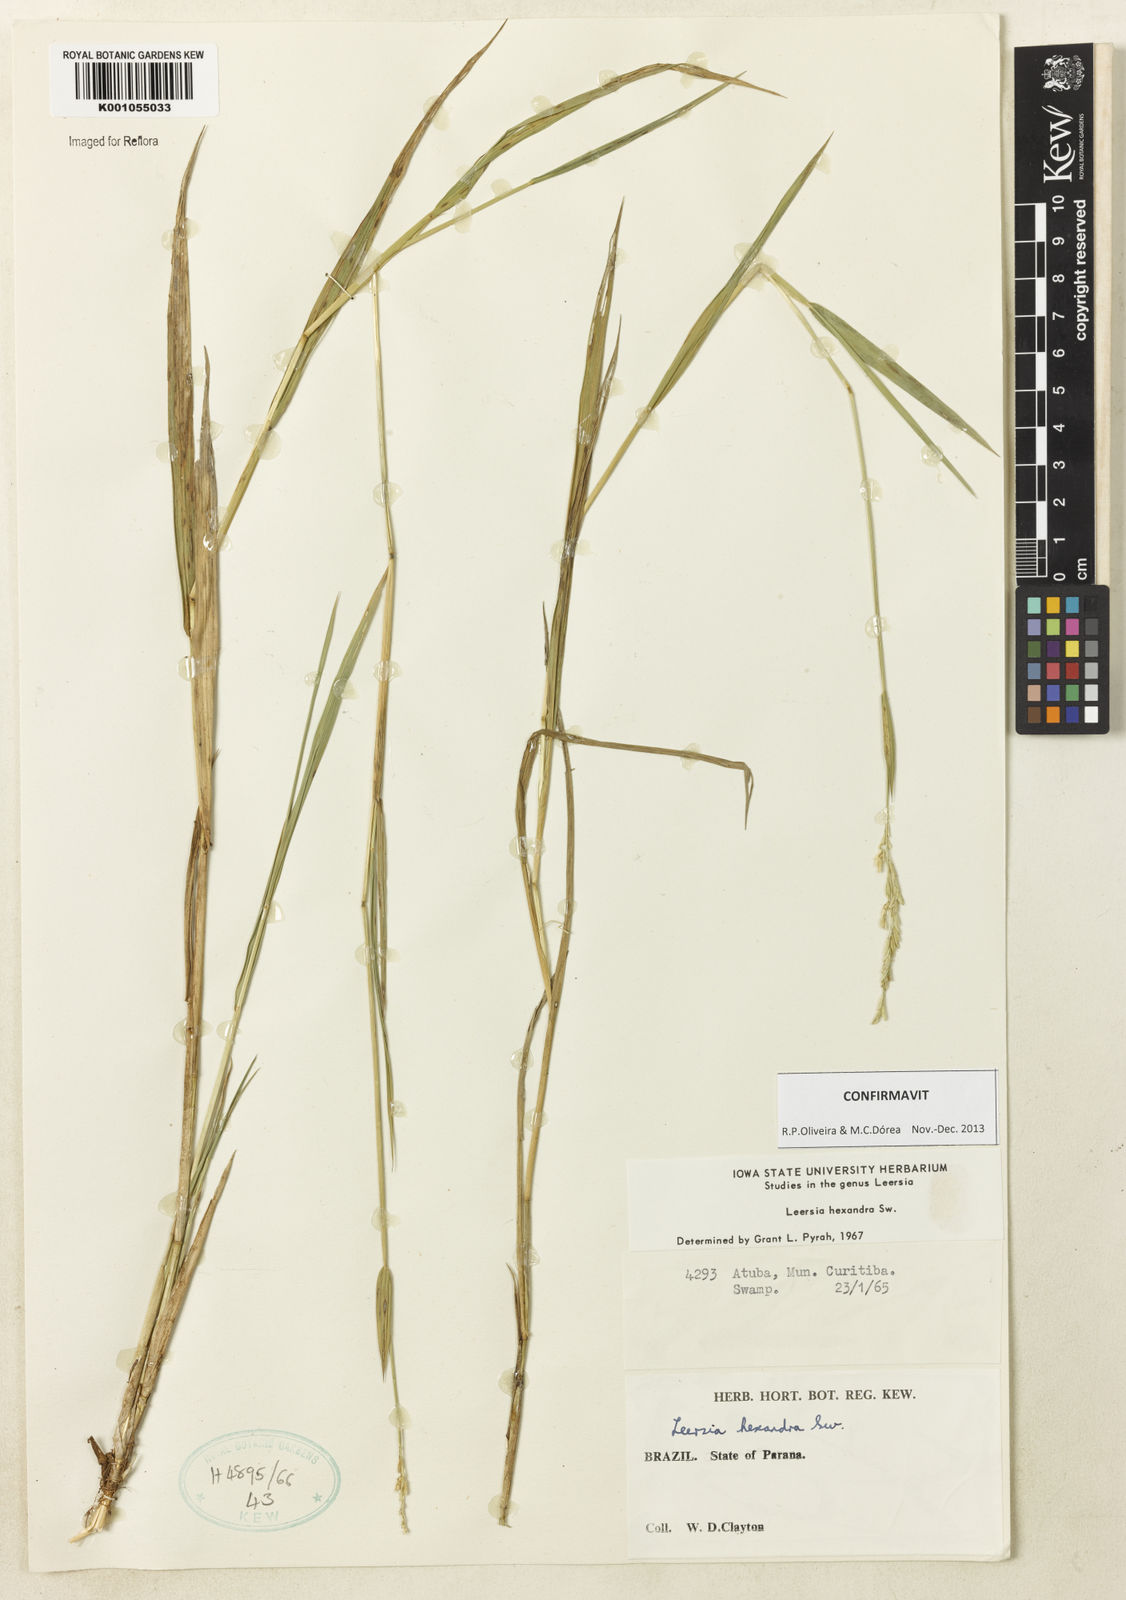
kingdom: Plantae
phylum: Tracheophyta
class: Liliopsida
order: Poales
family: Poaceae
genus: Leersia
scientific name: Leersia hexandra
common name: Southern cut grass
